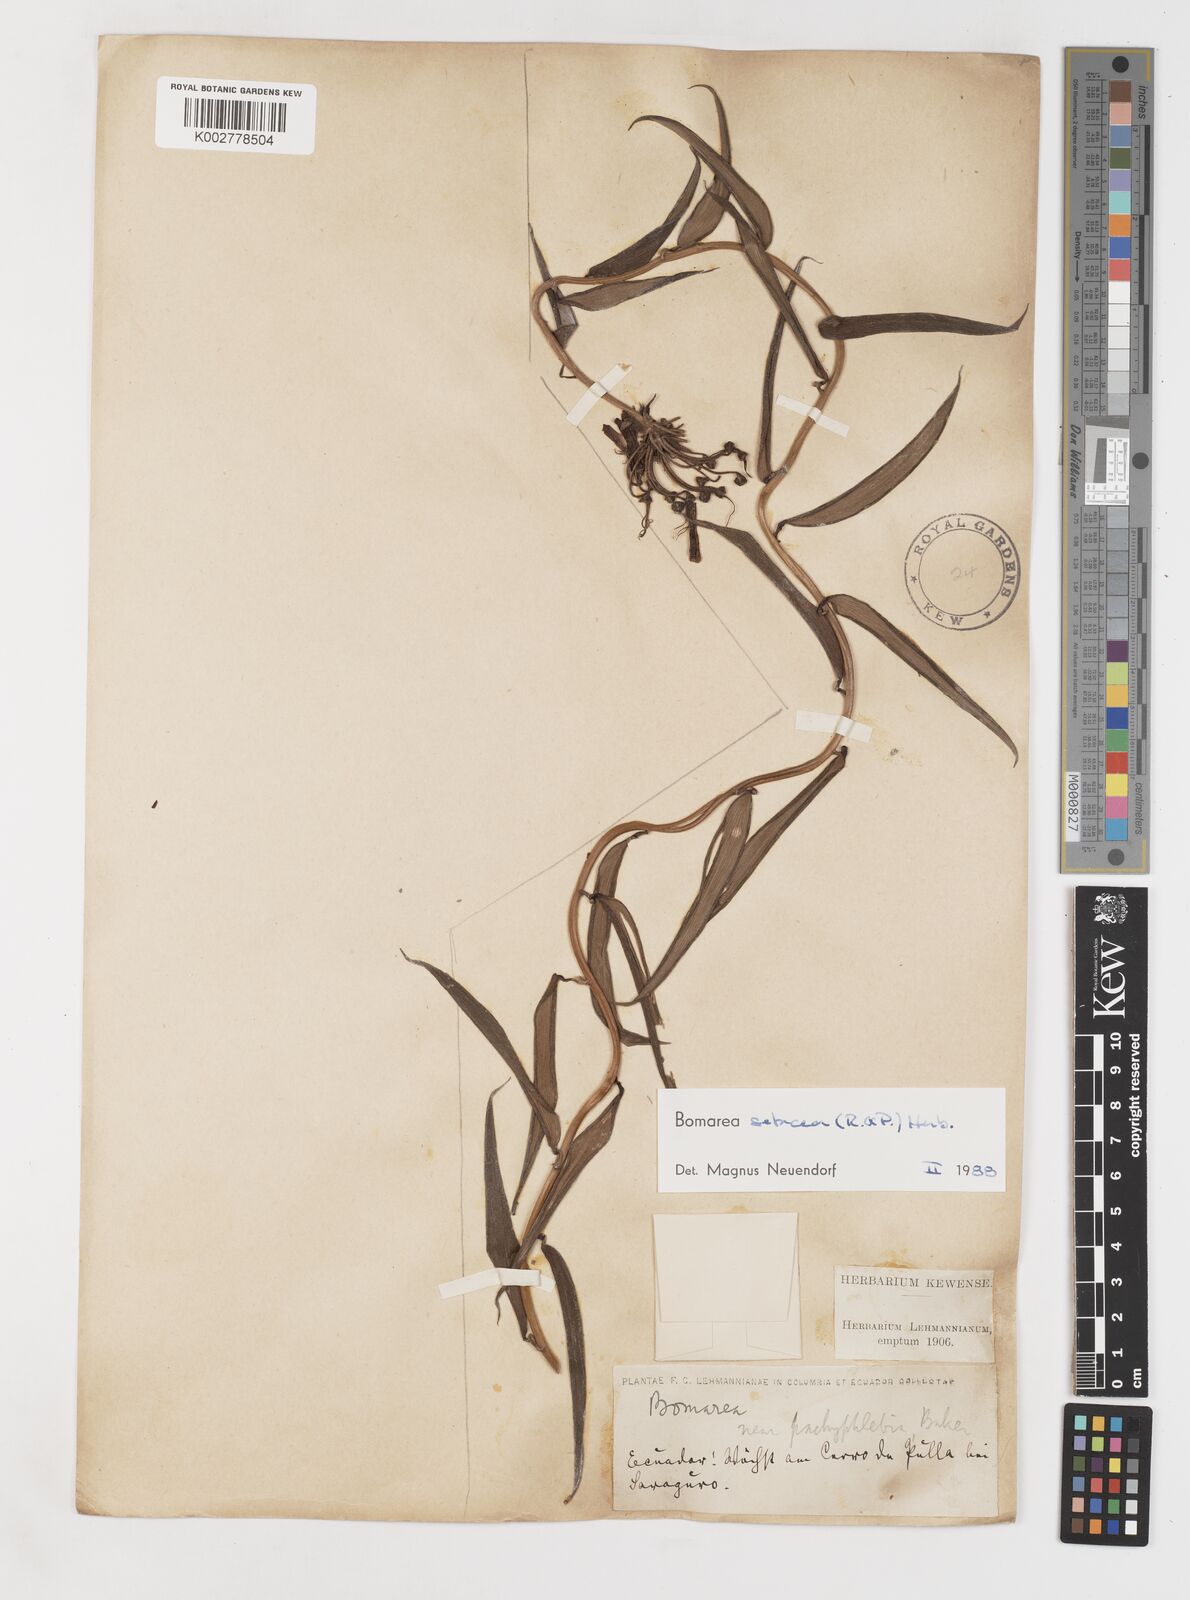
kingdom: Plantae
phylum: Tracheophyta
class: Liliopsida
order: Liliales
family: Alstroemeriaceae
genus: Bomarea
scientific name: Bomarea setacea
